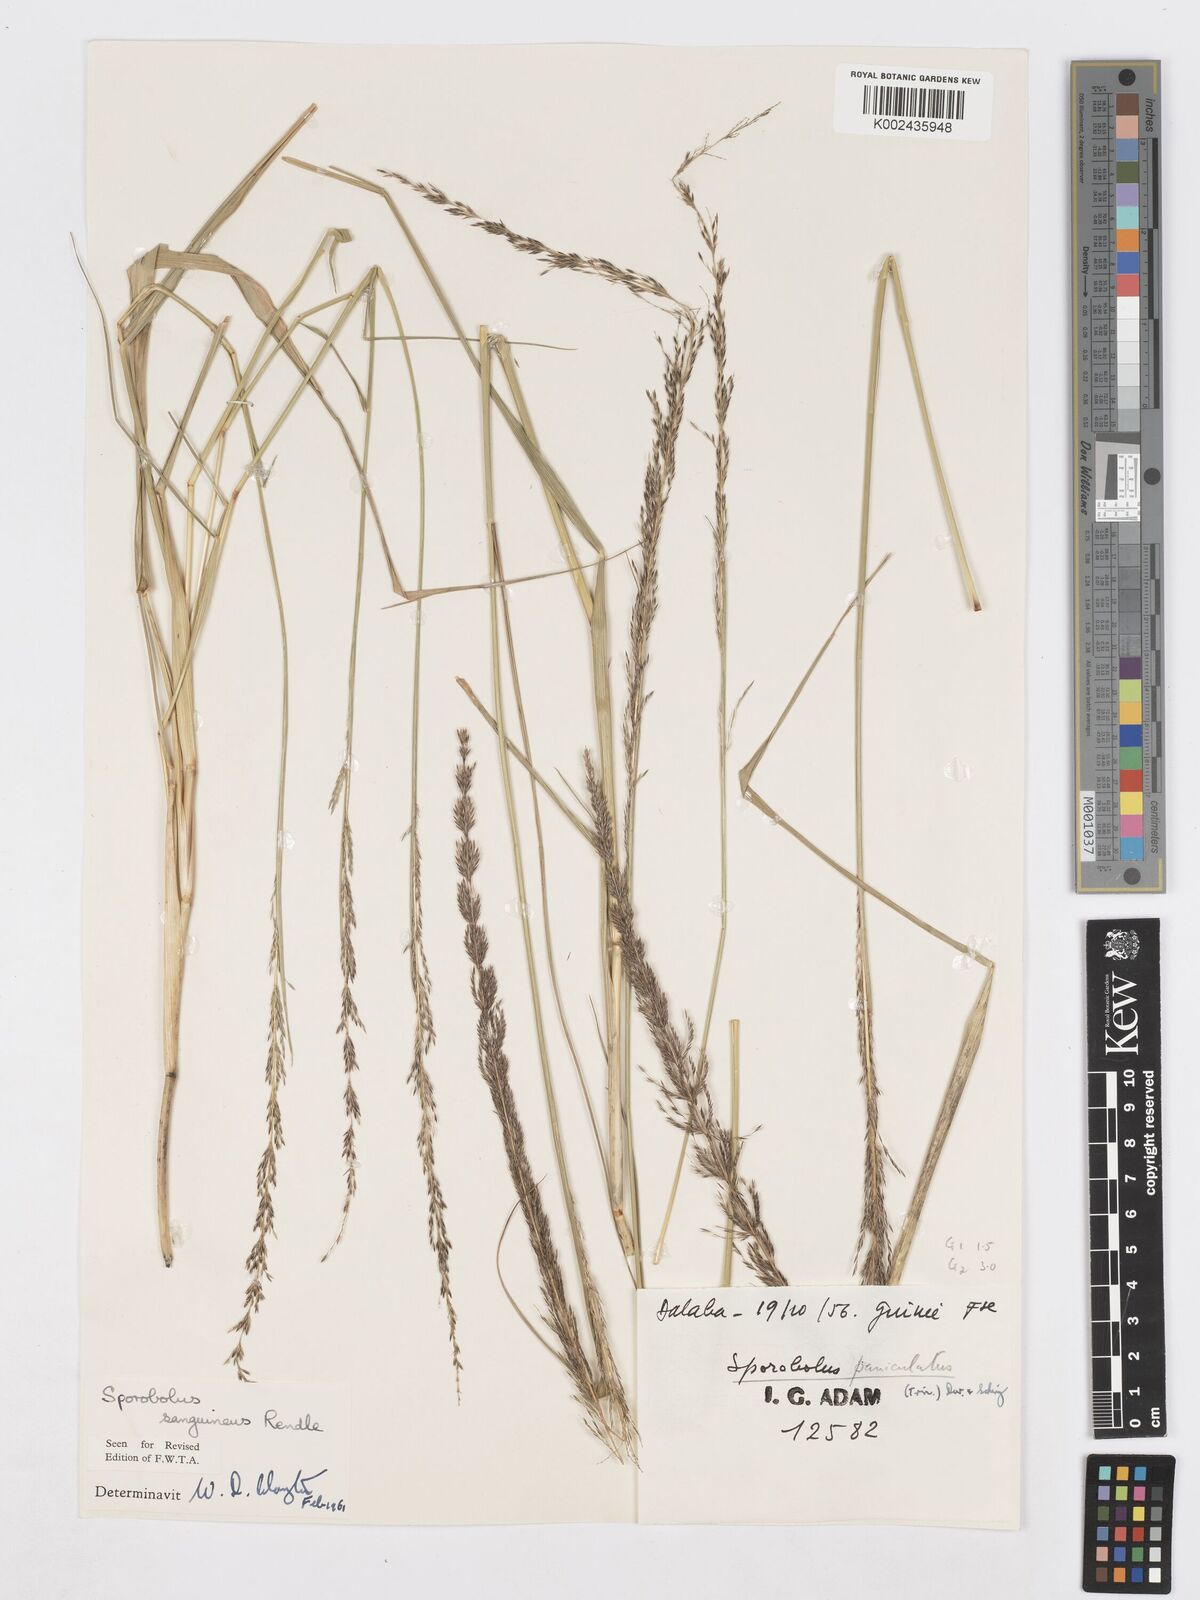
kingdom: Plantae
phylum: Tracheophyta
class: Liliopsida
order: Poales
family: Poaceae
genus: Sporobolus
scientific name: Sporobolus sanguineus
